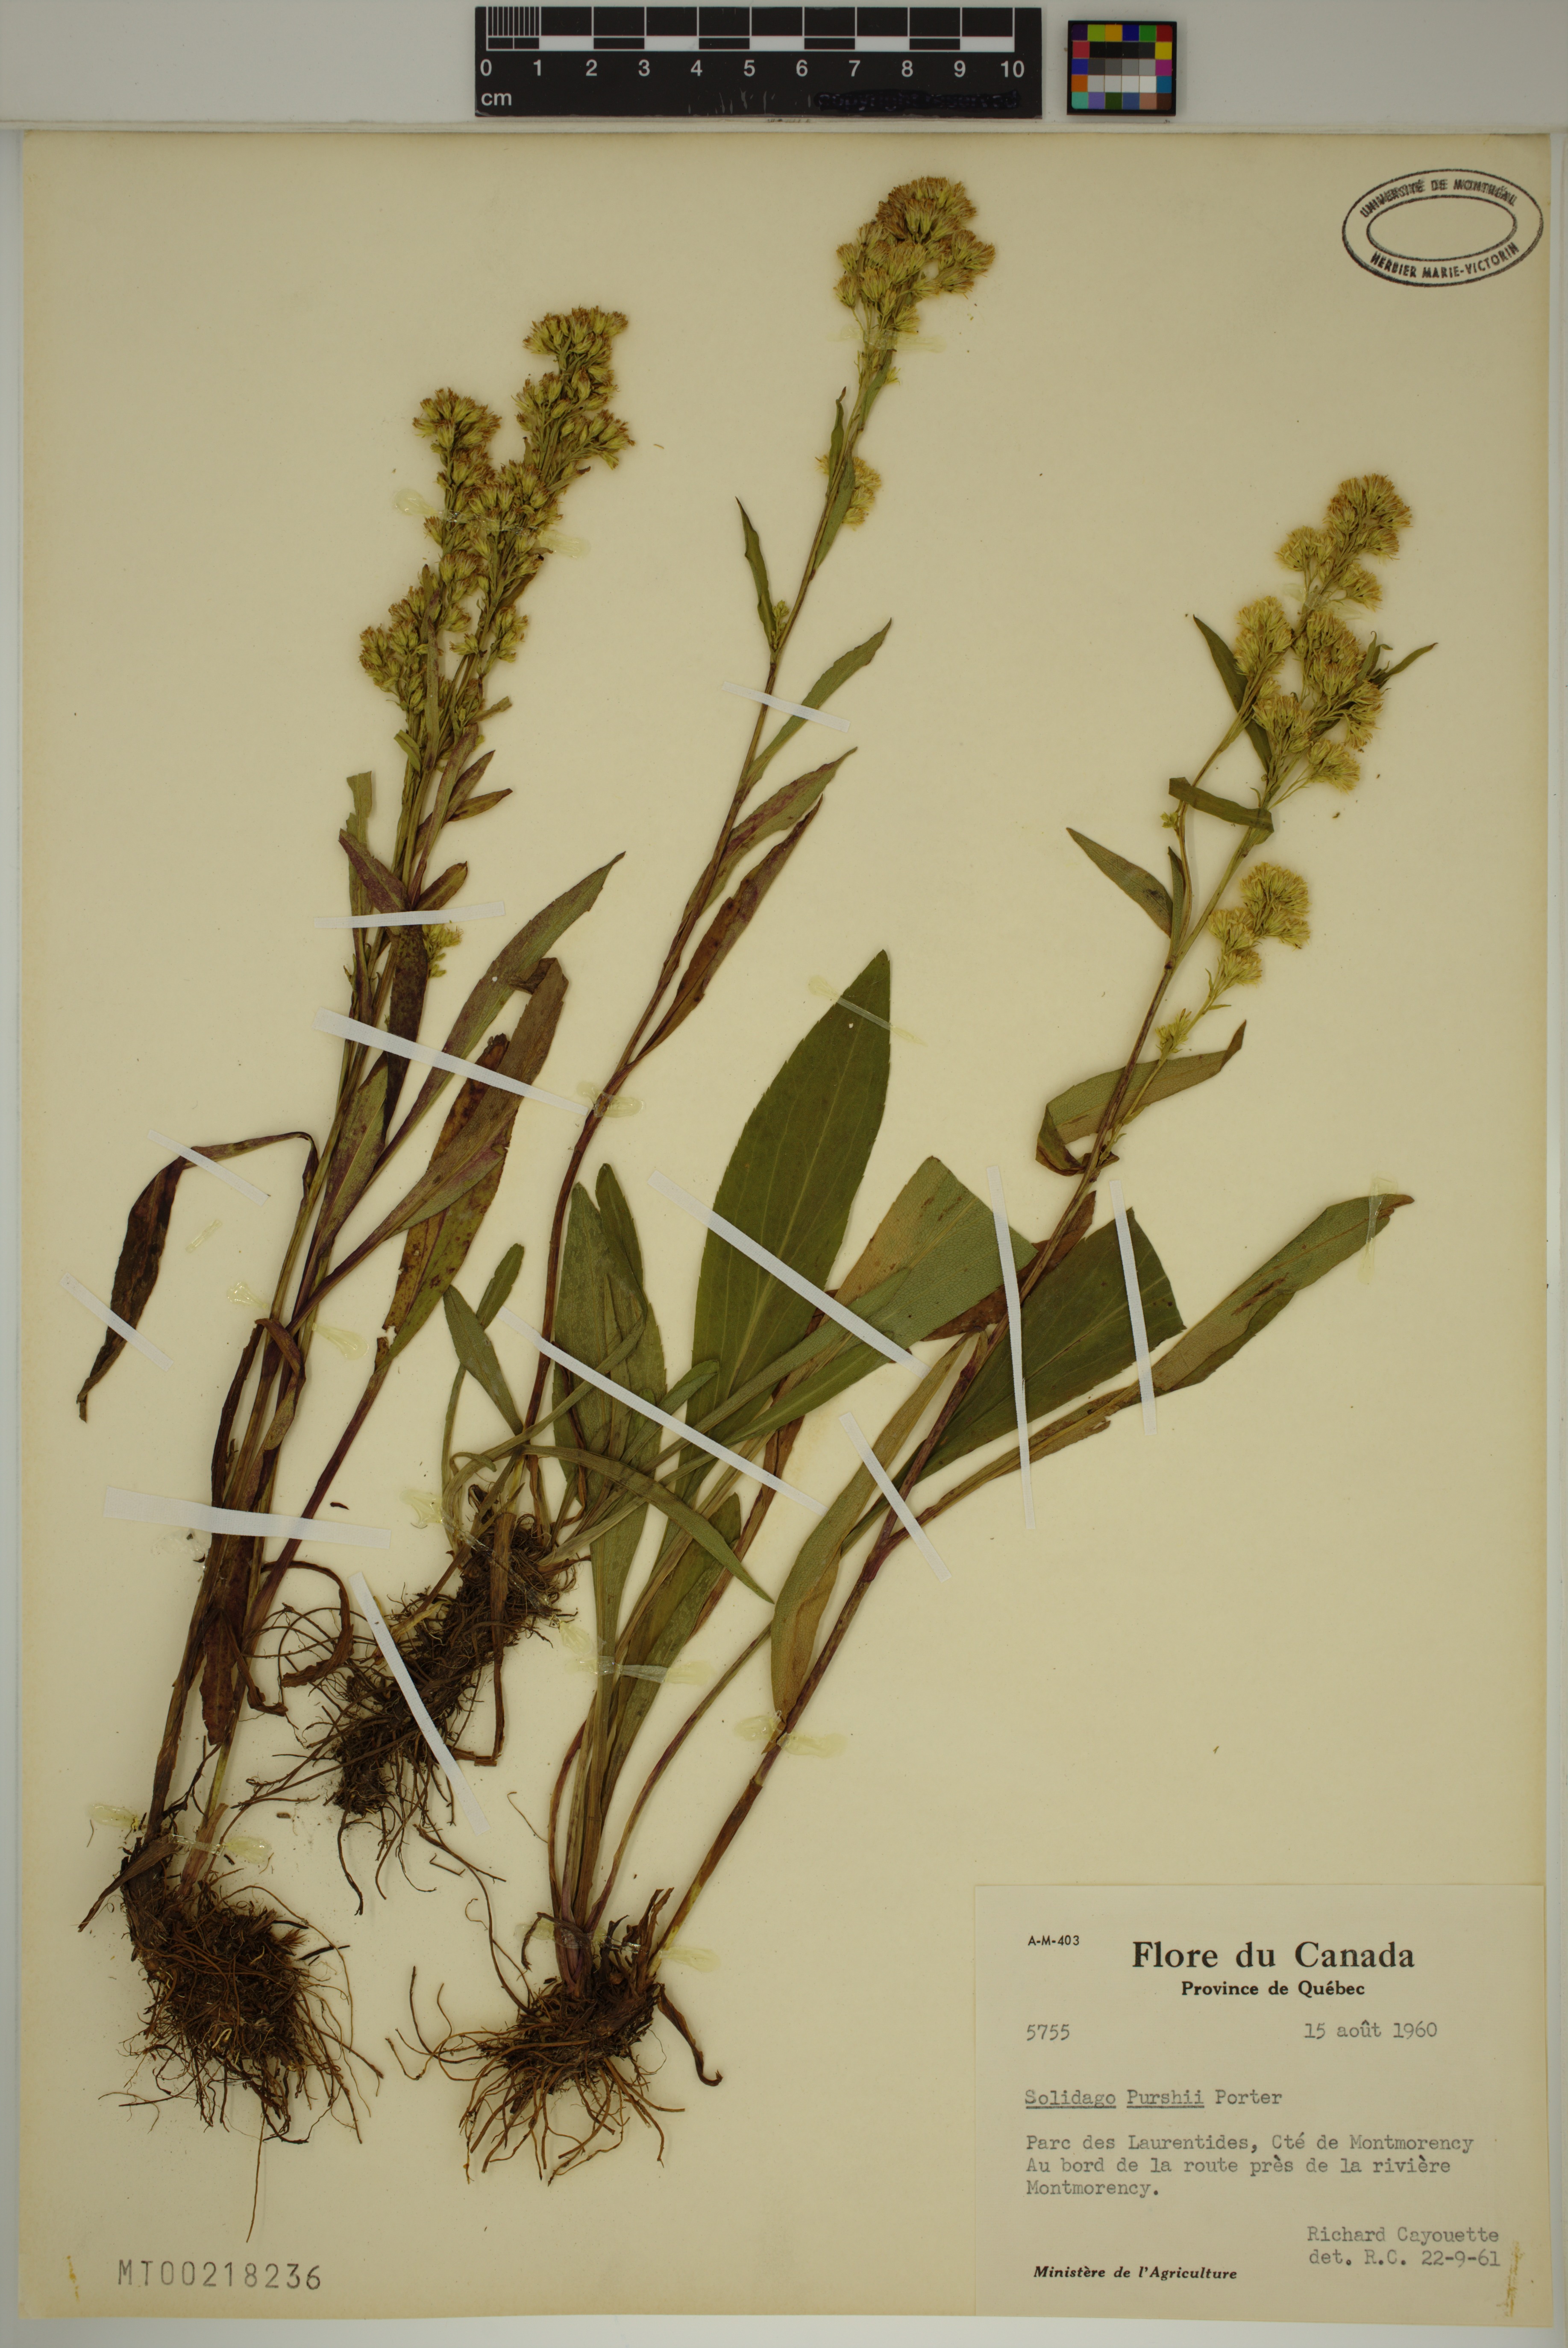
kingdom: Plantae
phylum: Tracheophyta
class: Magnoliopsida
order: Asterales
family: Asteraceae
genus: Solidago
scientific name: Solidago uliginosa
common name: Bog goldenrod
